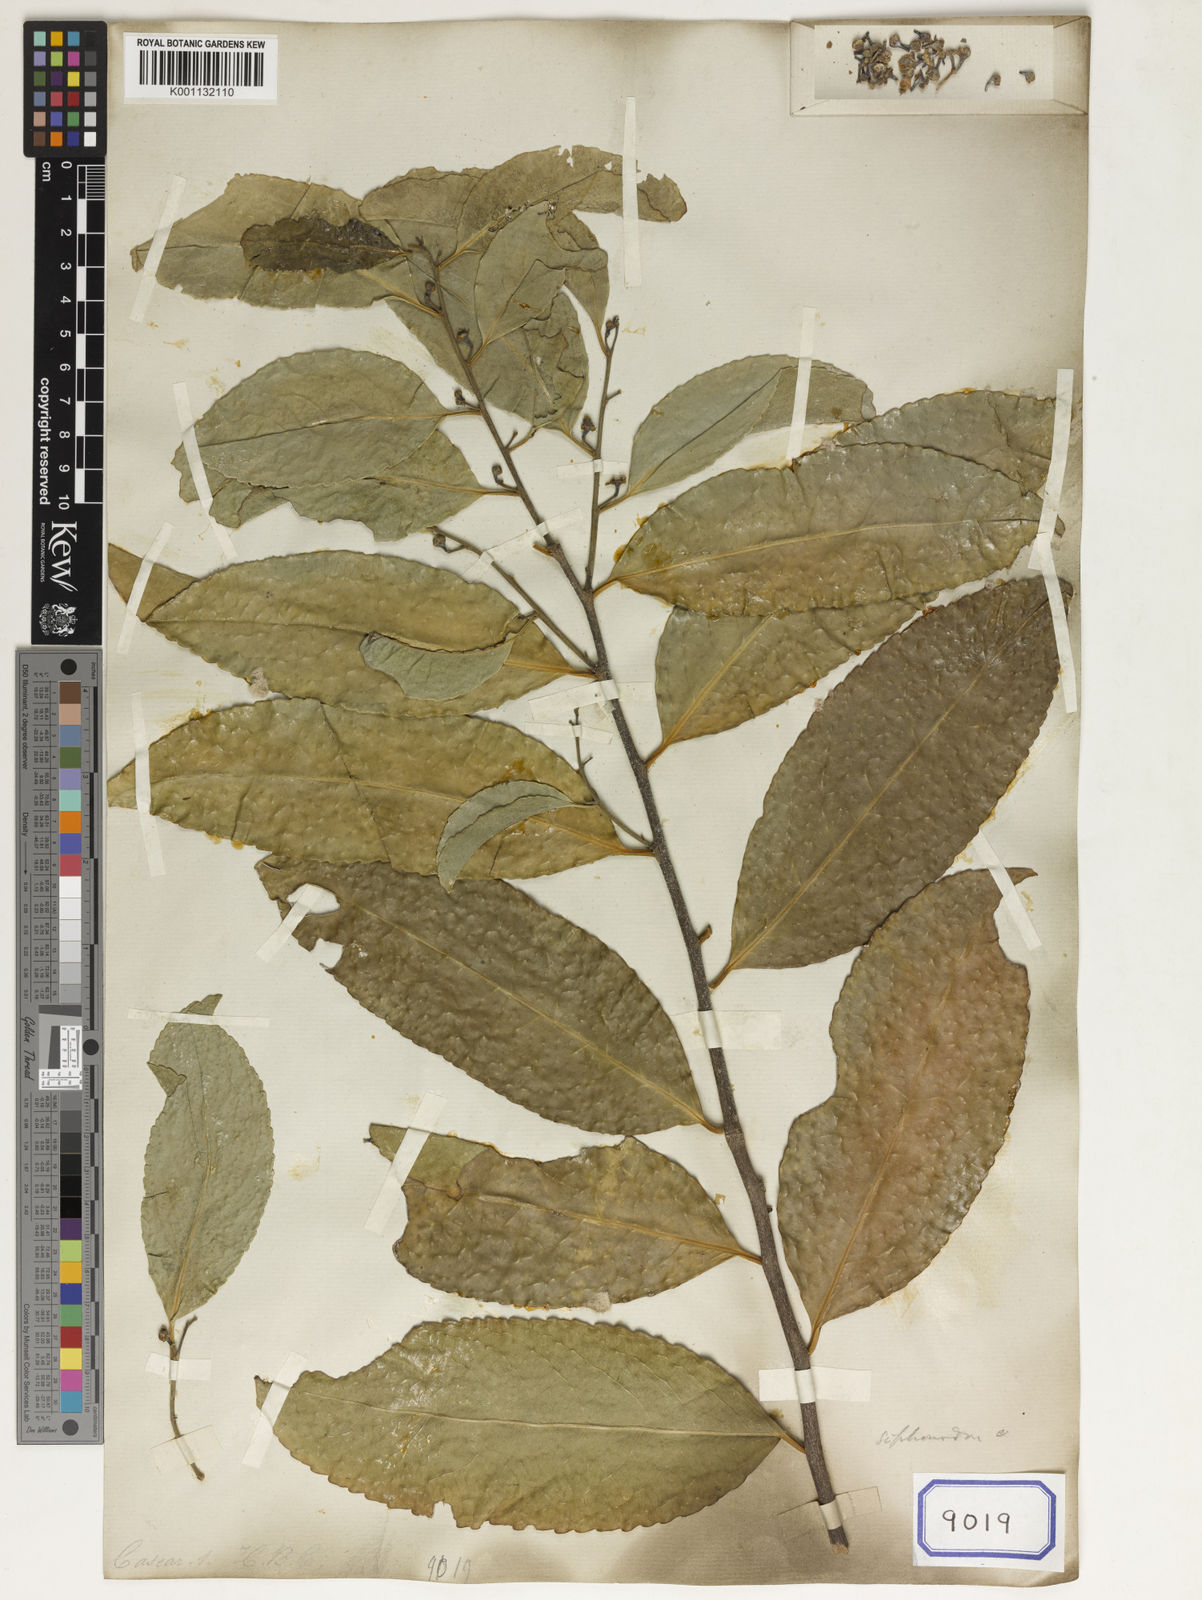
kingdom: Plantae
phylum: Tracheophyta
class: Magnoliopsida
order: Celastrales
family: Celastraceae
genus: Siphonodon
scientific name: Siphonodon celastrineus
